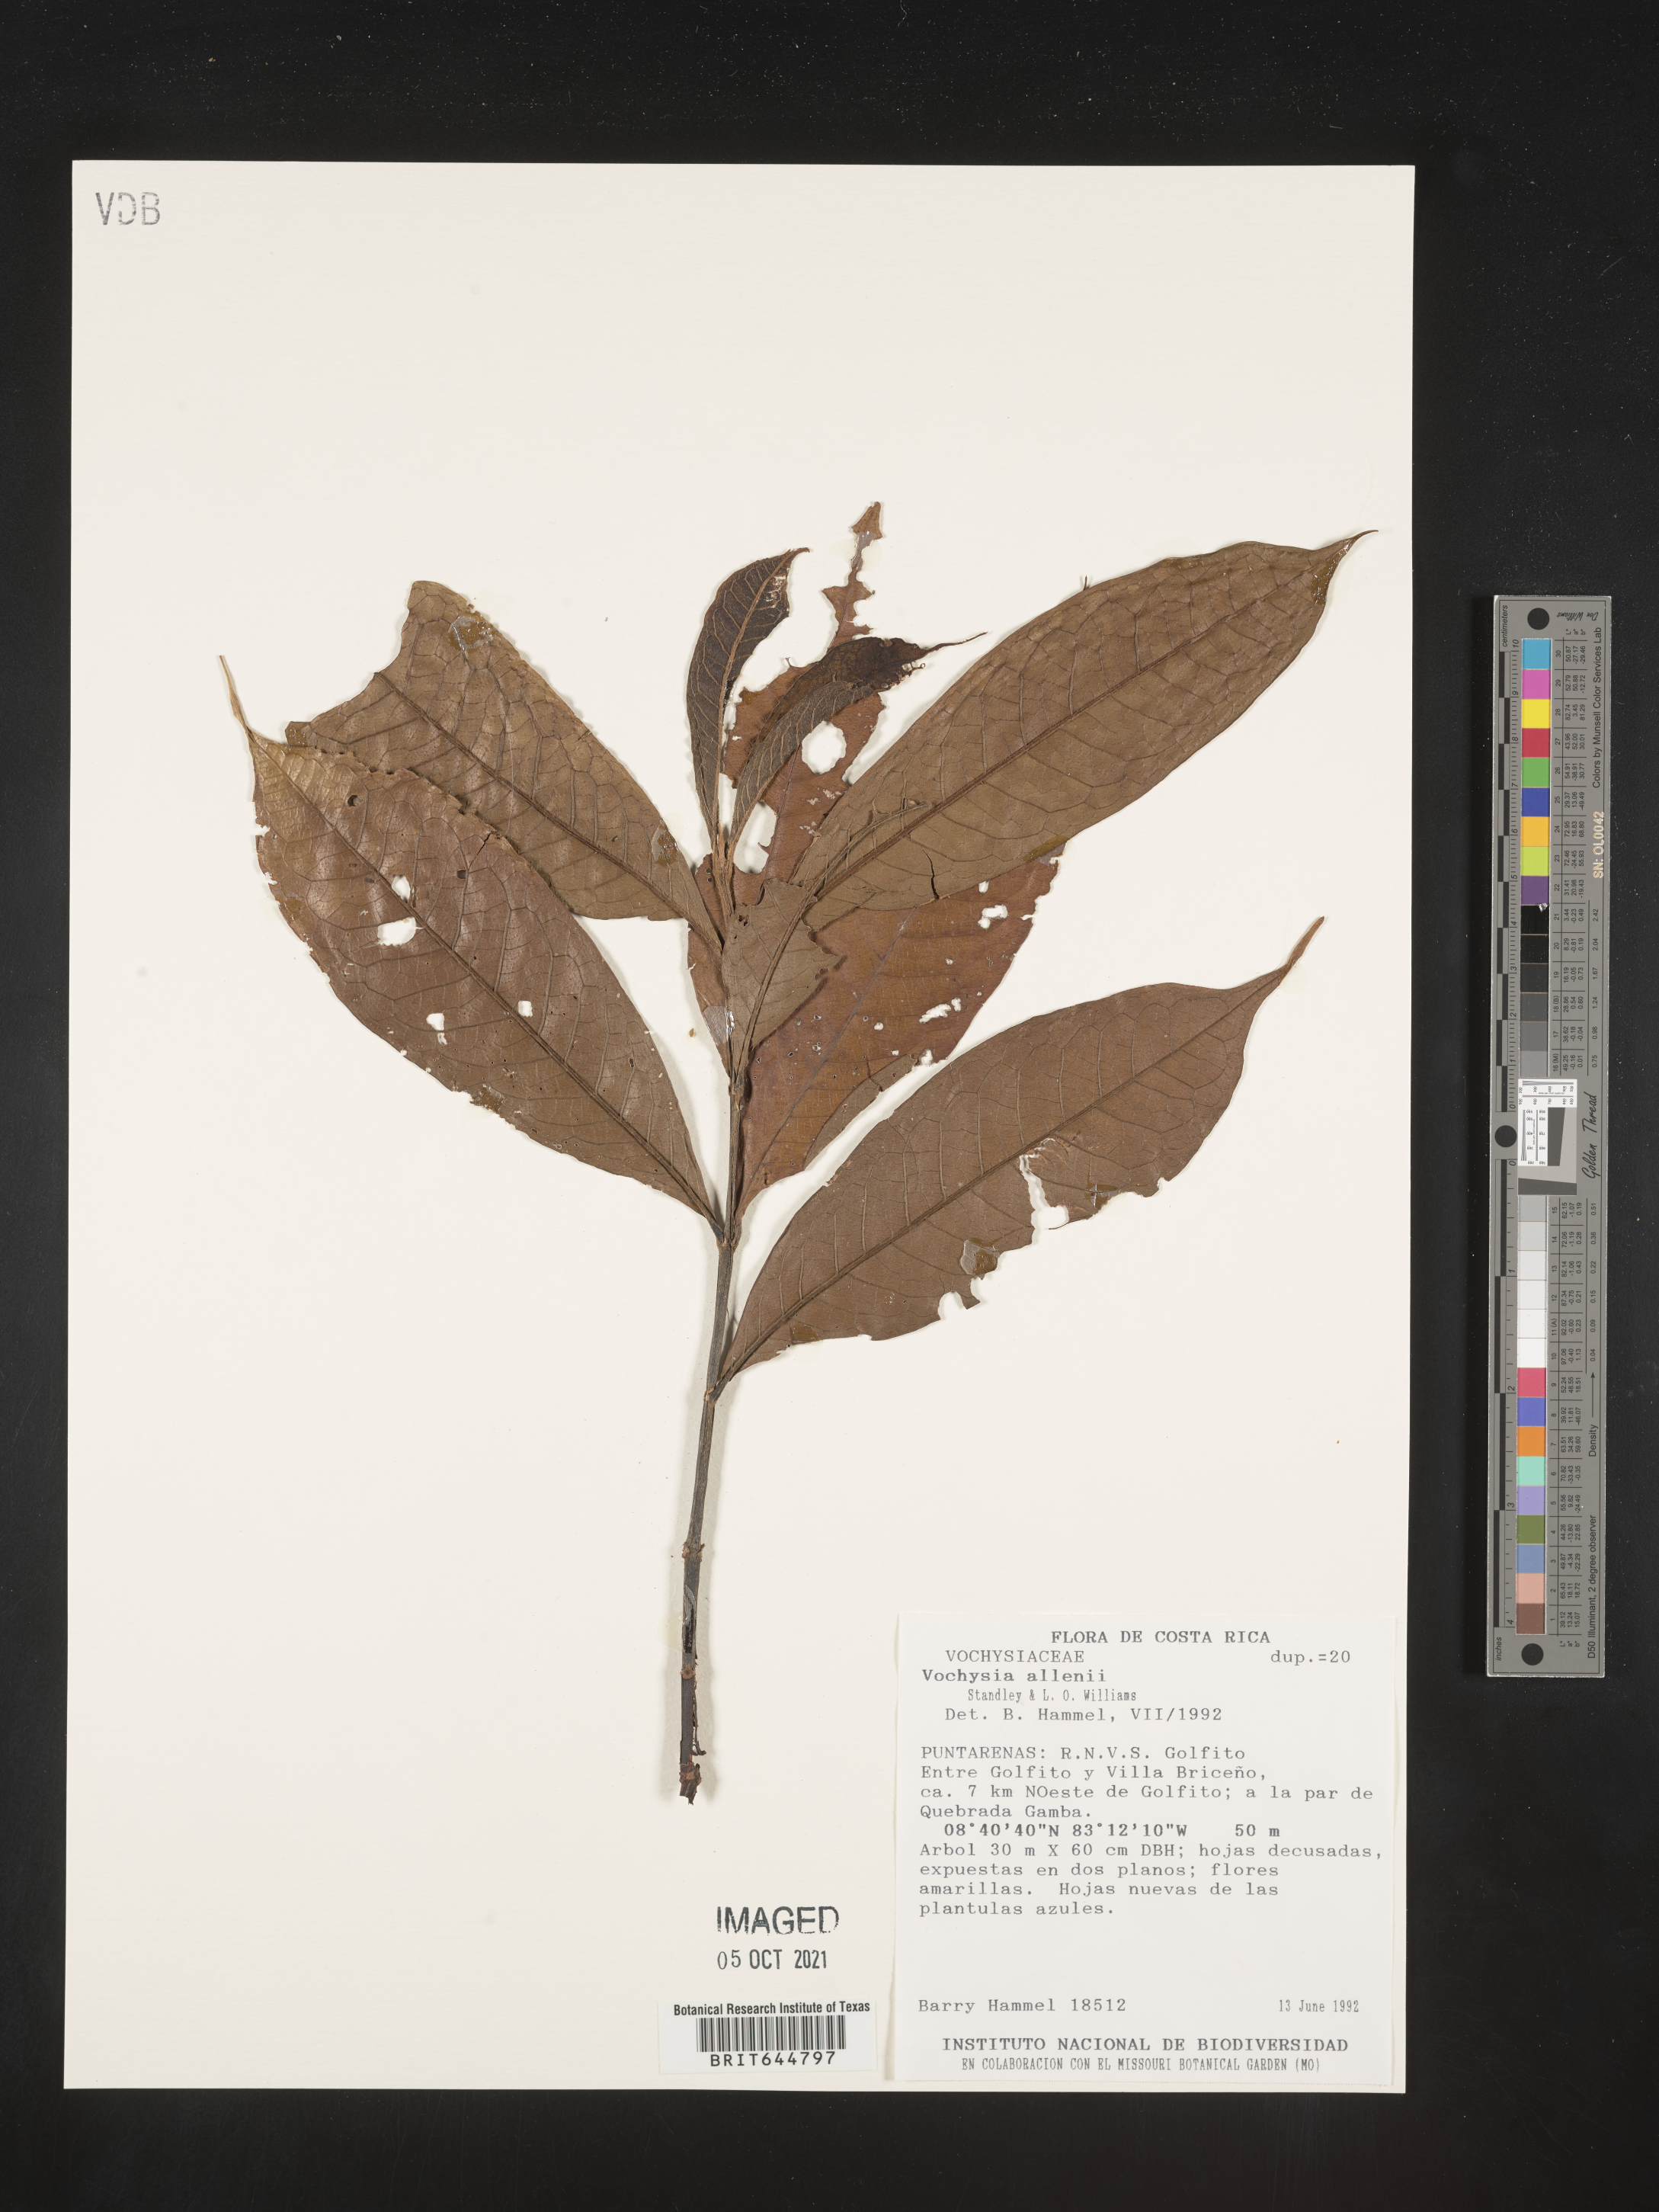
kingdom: Plantae
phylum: Tracheophyta
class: Magnoliopsida
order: Myrtales
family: Vochysiaceae
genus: Vochysia
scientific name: Vochysia
